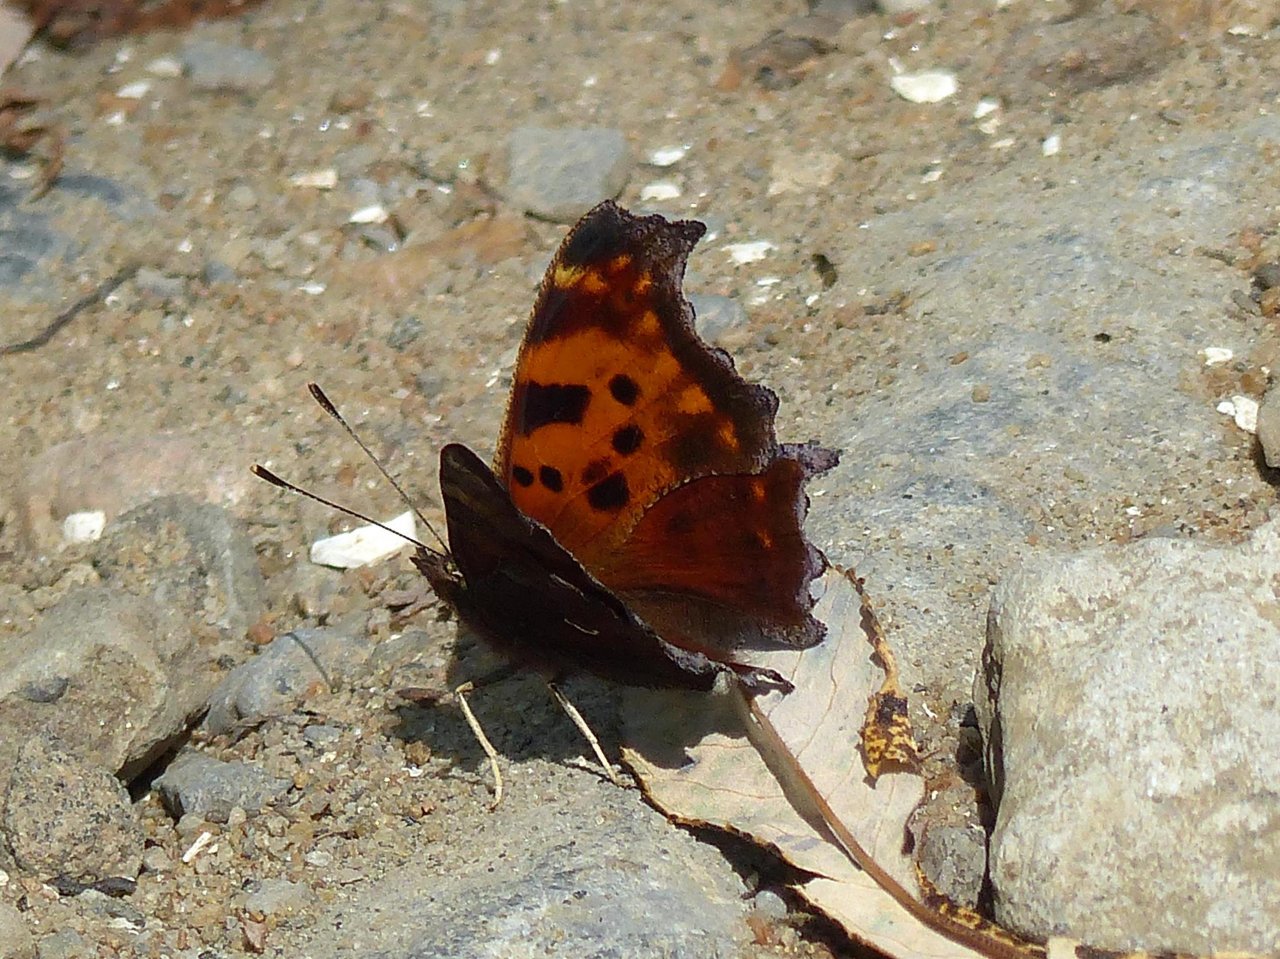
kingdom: Animalia
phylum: Arthropoda
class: Insecta
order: Lepidoptera
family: Nymphalidae
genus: Polygonia
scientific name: Polygonia comma
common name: Eastern Comma
